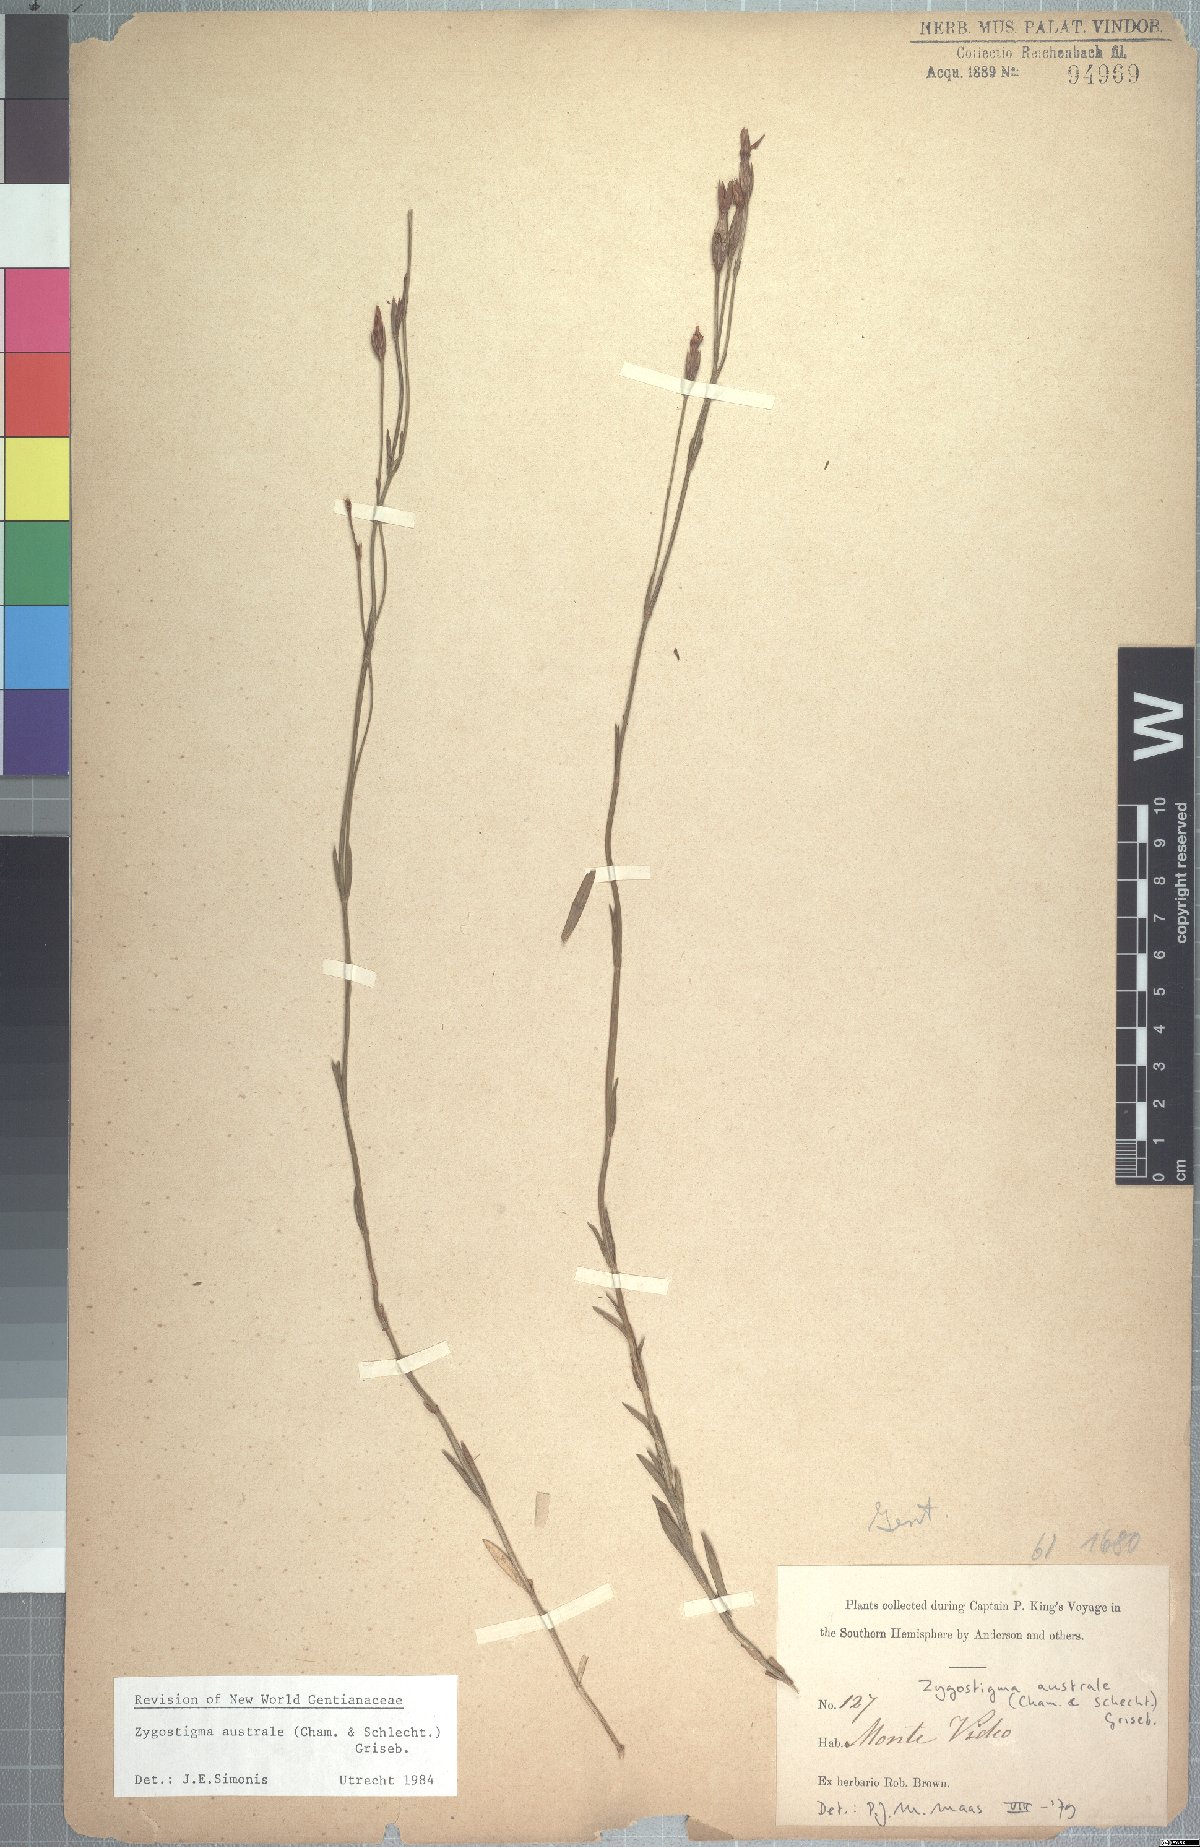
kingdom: Plantae
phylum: Tracheophyta
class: Magnoliopsida
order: Gentianales
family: Gentianaceae
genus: Zygostigma
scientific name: Zygostigma australe
